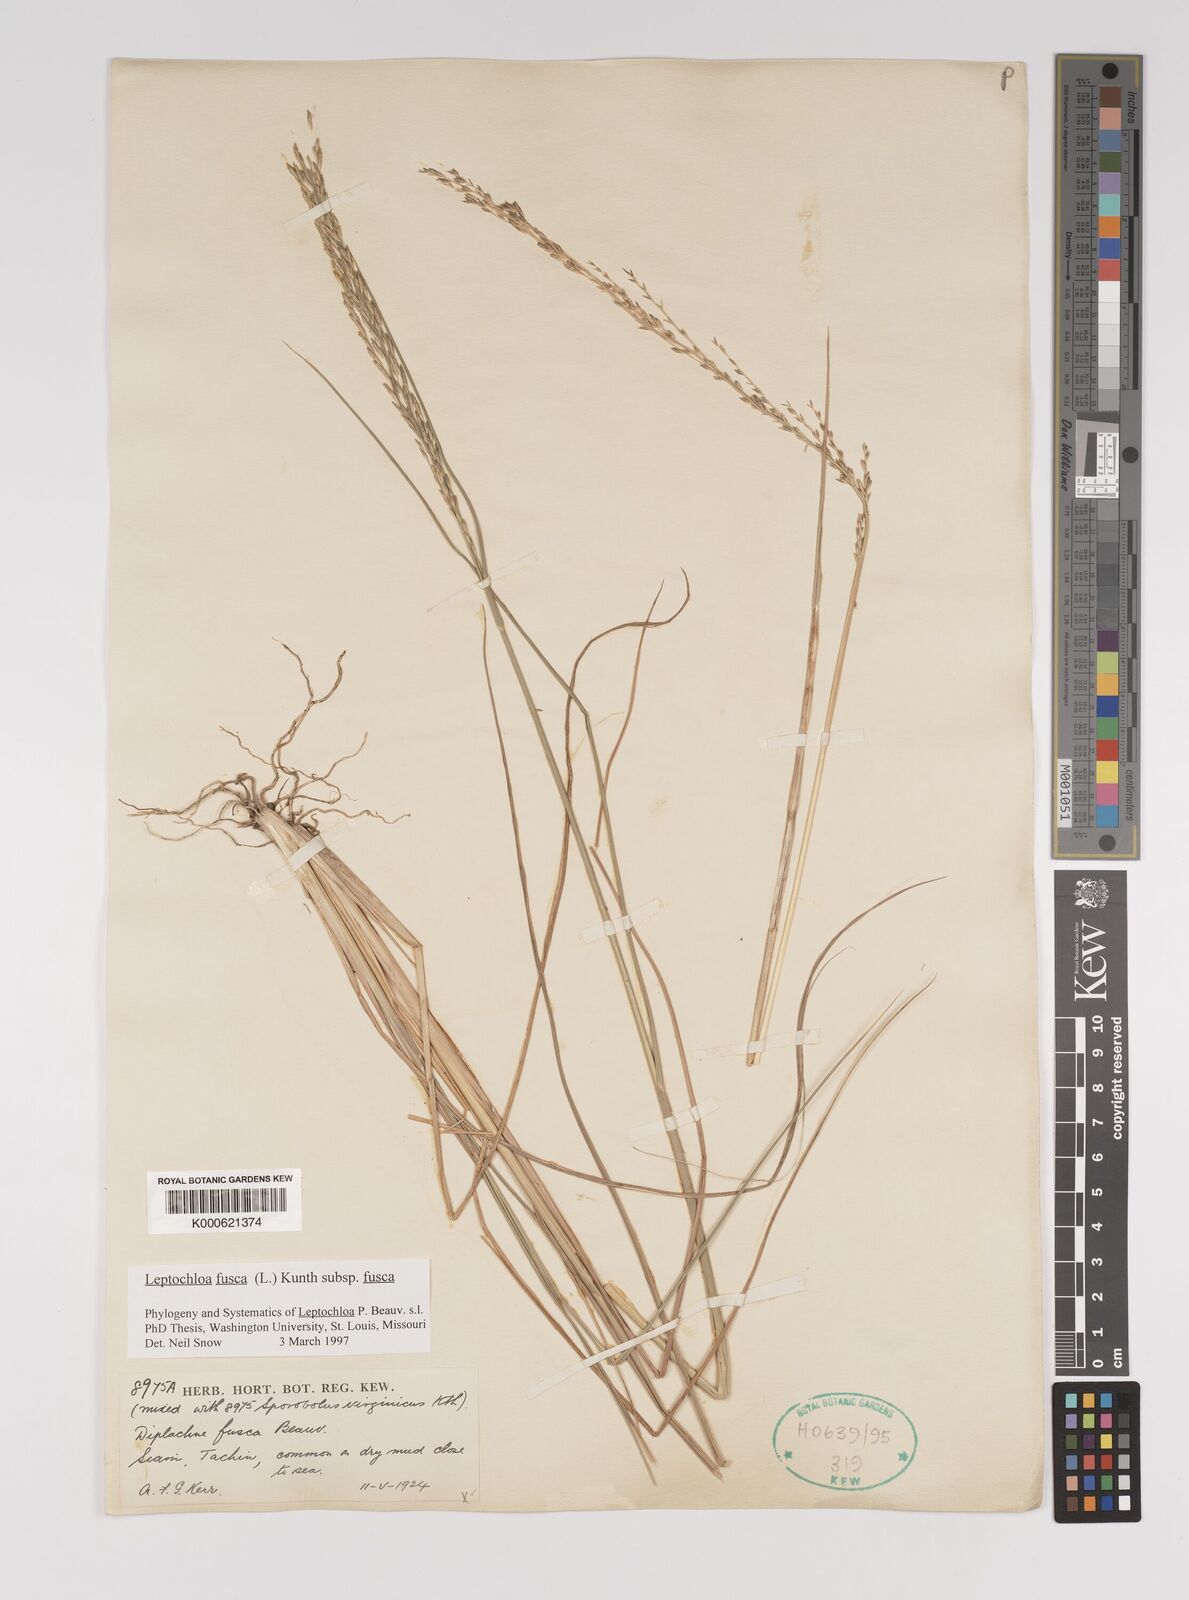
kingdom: Plantae
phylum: Tracheophyta
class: Liliopsida
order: Poales
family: Poaceae
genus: Diplachne
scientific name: Diplachne fusca
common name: Brown beetle grass
